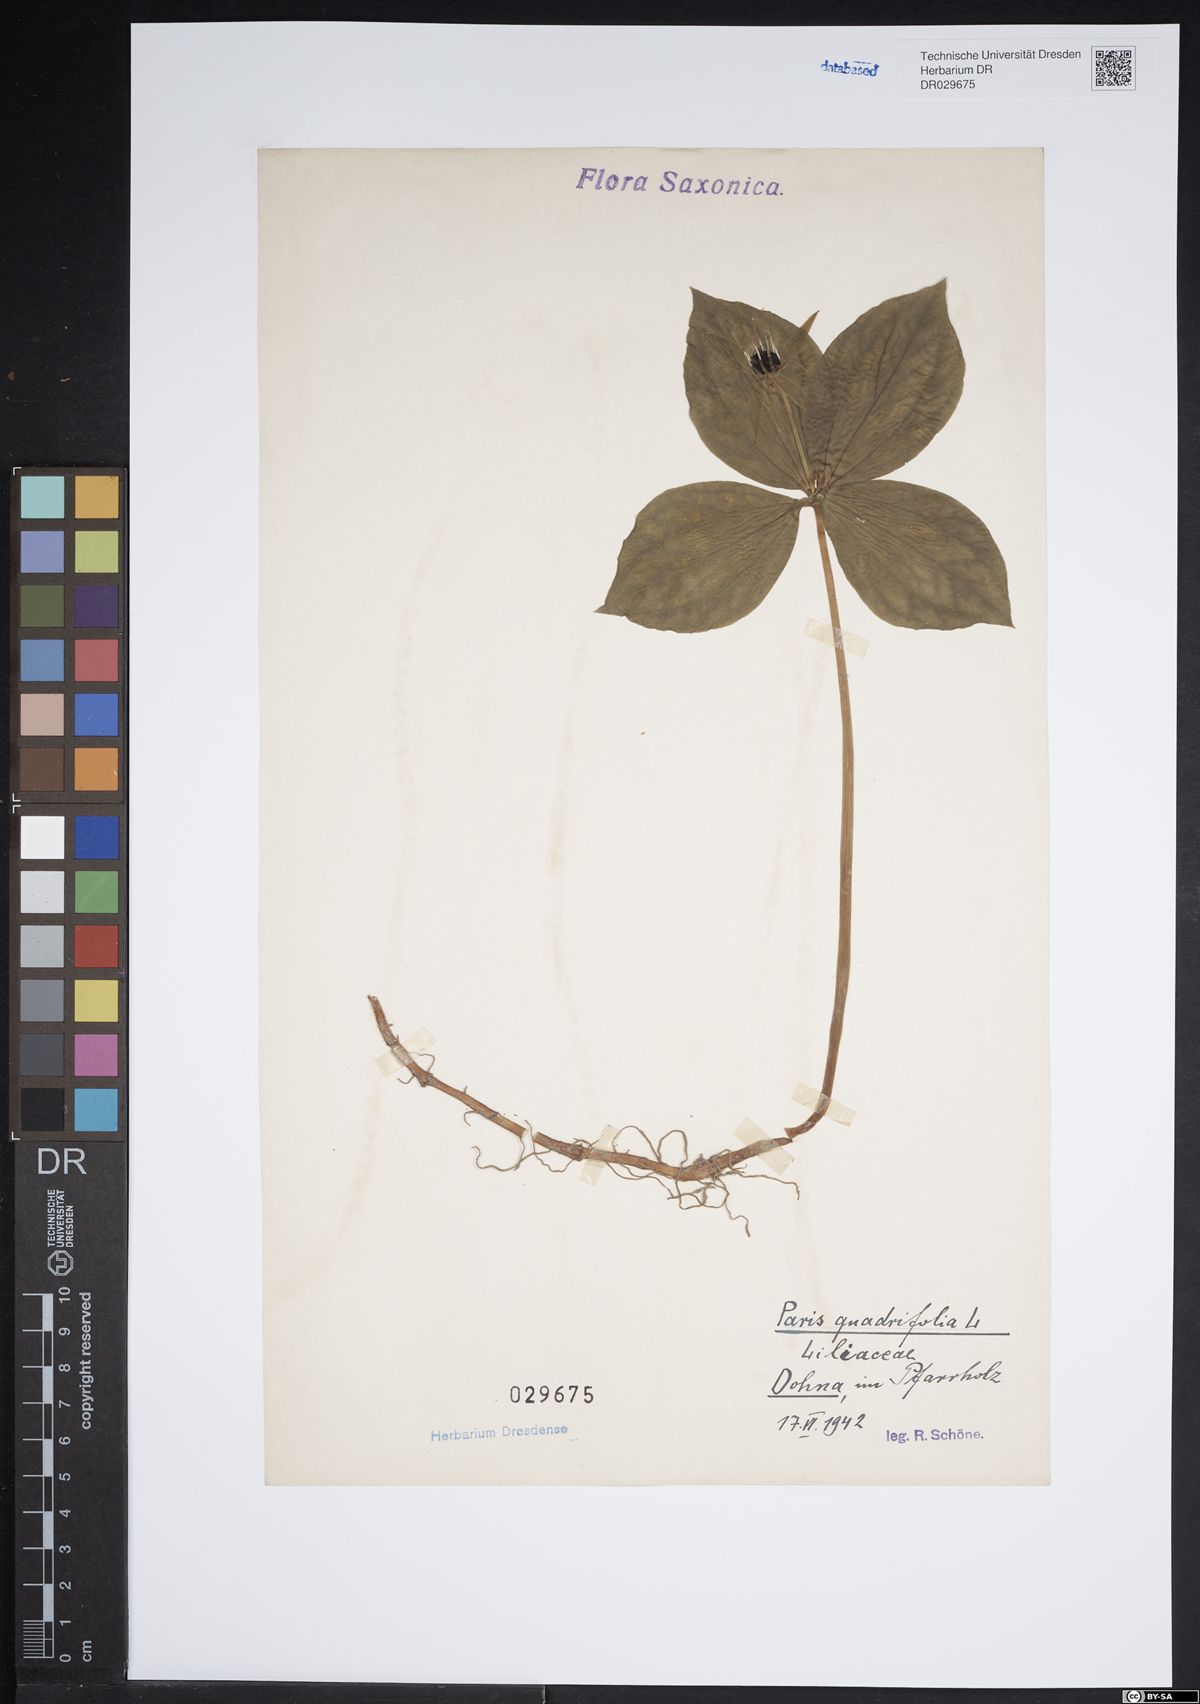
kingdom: Plantae
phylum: Tracheophyta
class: Liliopsida
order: Liliales
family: Melanthiaceae
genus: Paris
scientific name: Paris quadrifolia
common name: Herb-paris
